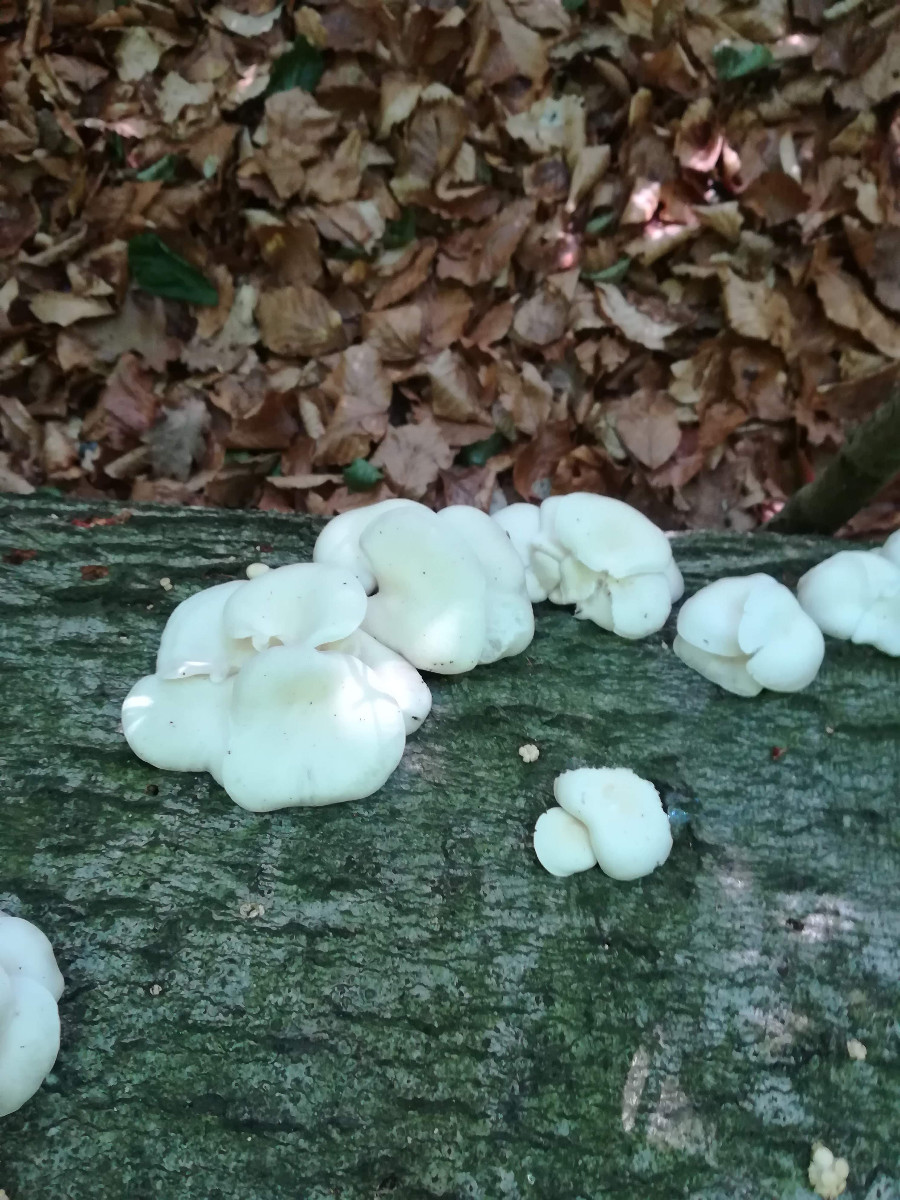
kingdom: Fungi
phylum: Basidiomycota
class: Agaricomycetes
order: Agaricales
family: Pleurotaceae
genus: Pleurotus
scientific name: Pleurotus pulmonarius
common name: sommer-østershat
